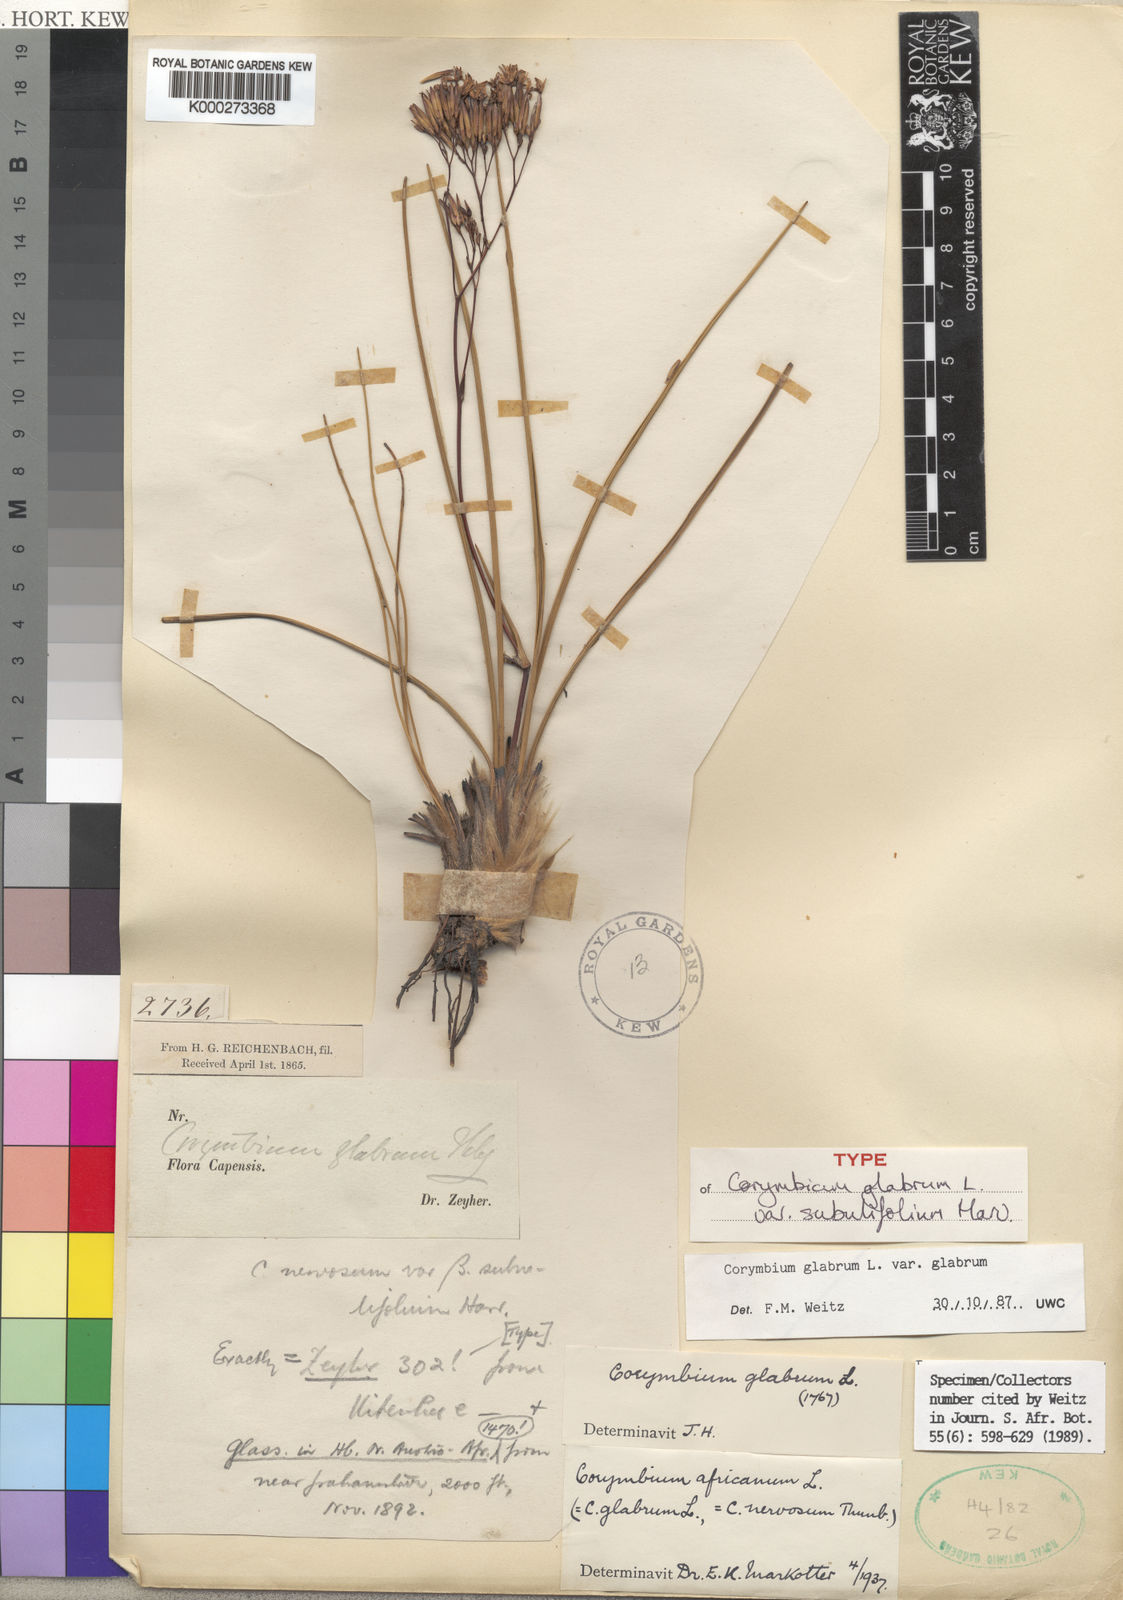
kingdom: Plantae
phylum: Tracheophyta
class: Magnoliopsida
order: Asterales
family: Asteraceae
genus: Corymbium
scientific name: Corymbium glabrum
